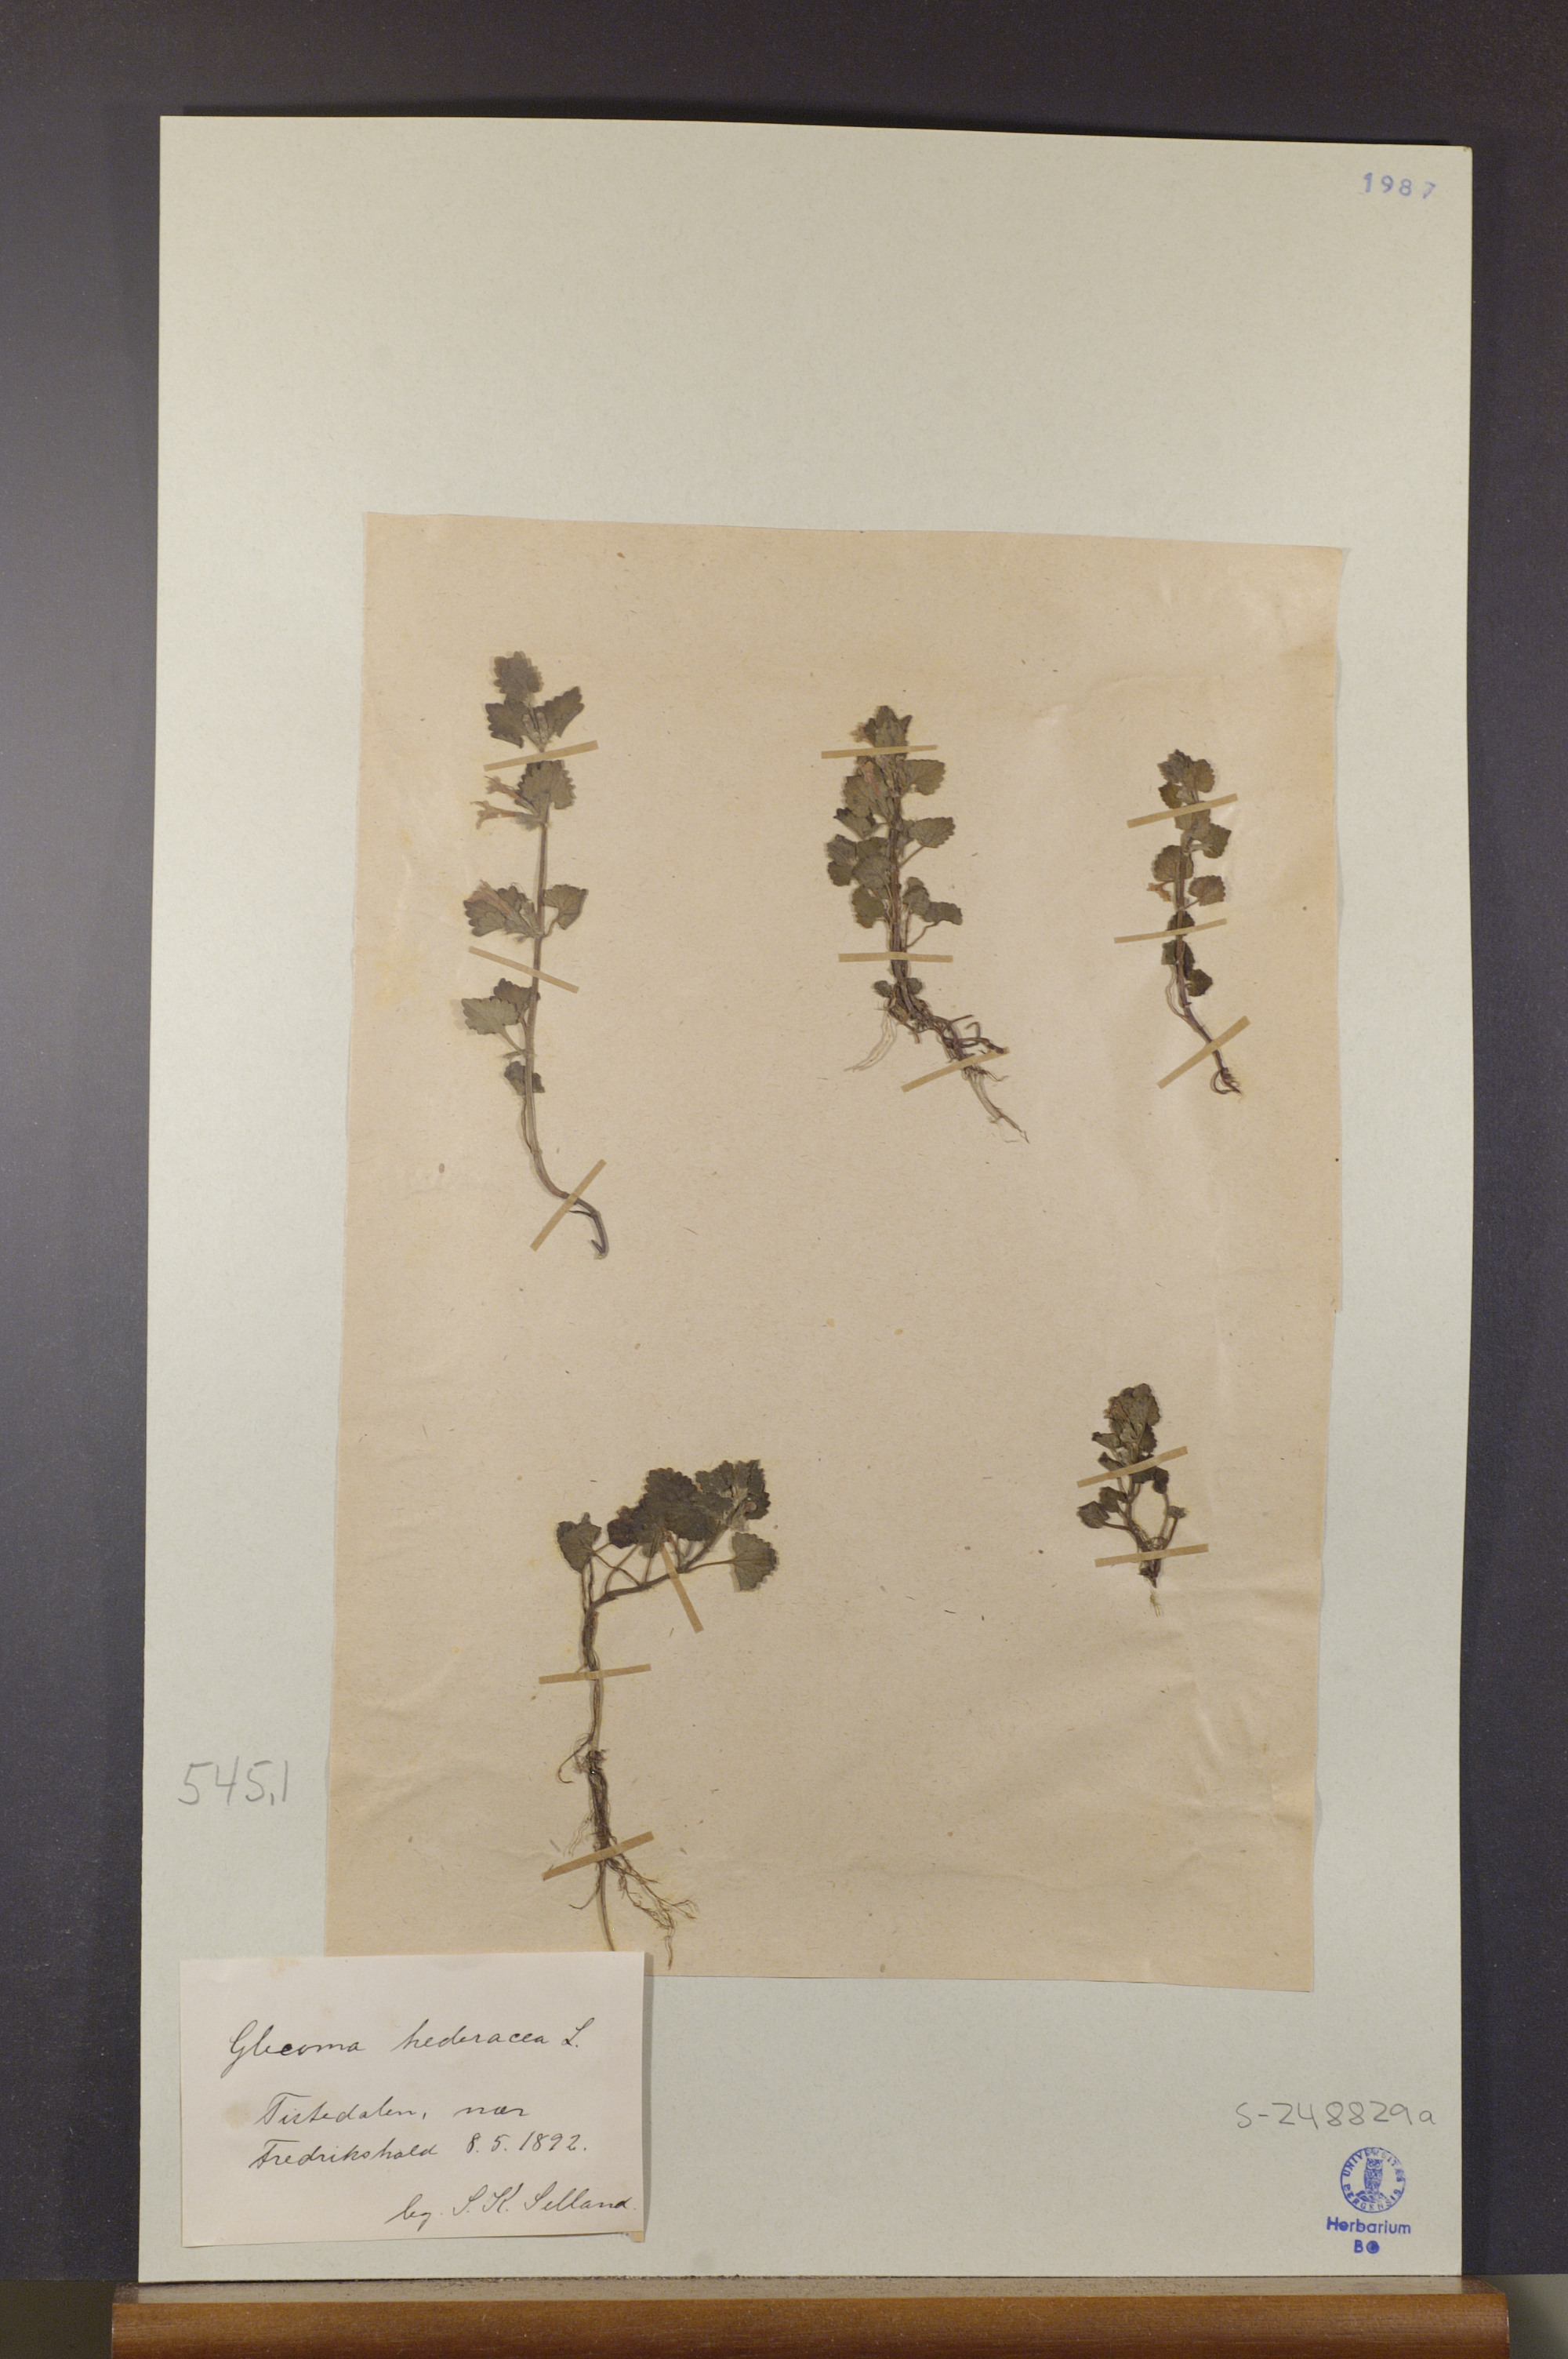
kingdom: Plantae
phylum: Tracheophyta
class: Magnoliopsida
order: Lamiales
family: Lamiaceae
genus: Glechoma
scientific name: Glechoma hederacea
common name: Ground ivy
